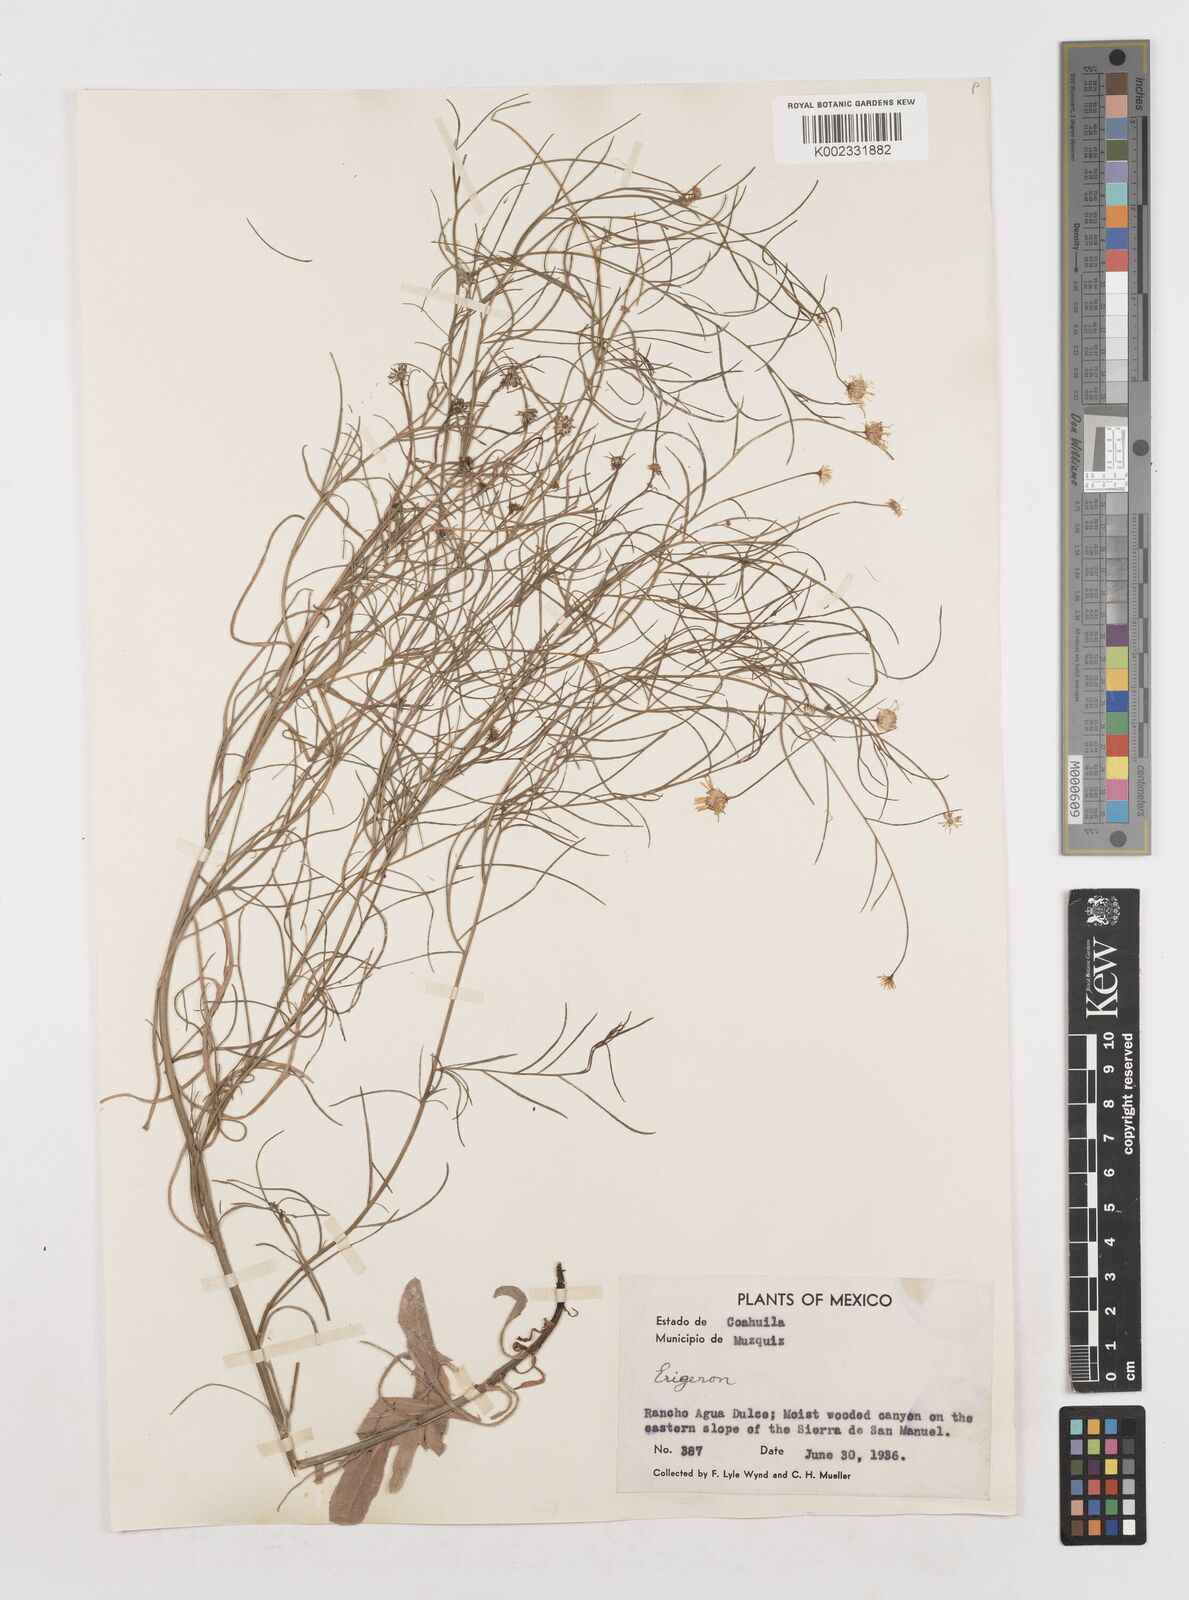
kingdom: Plantae
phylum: Tracheophyta
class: Magnoliopsida
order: Asterales
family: Asteraceae
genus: Erigeron
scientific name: Erigeron
